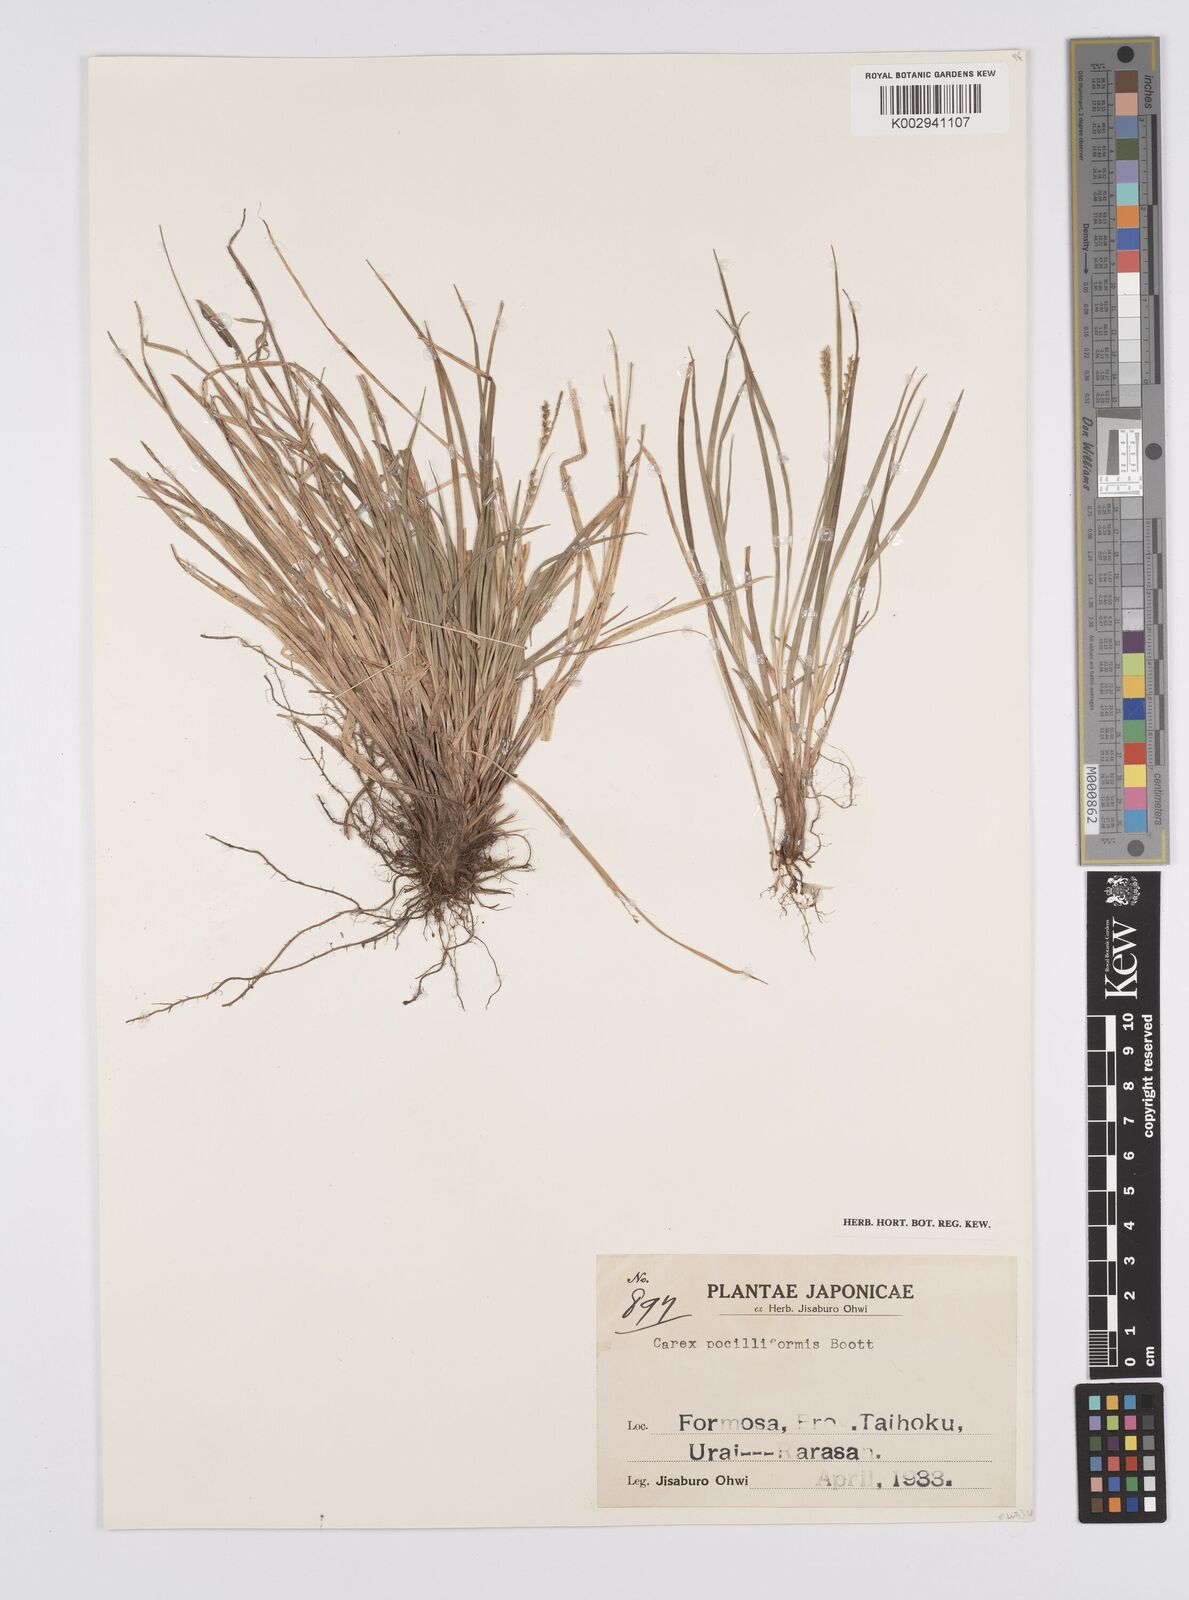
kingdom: Plantae
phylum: Tracheophyta
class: Liliopsida
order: Poales
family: Cyperaceae
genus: Carex
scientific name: Carex tristachya
